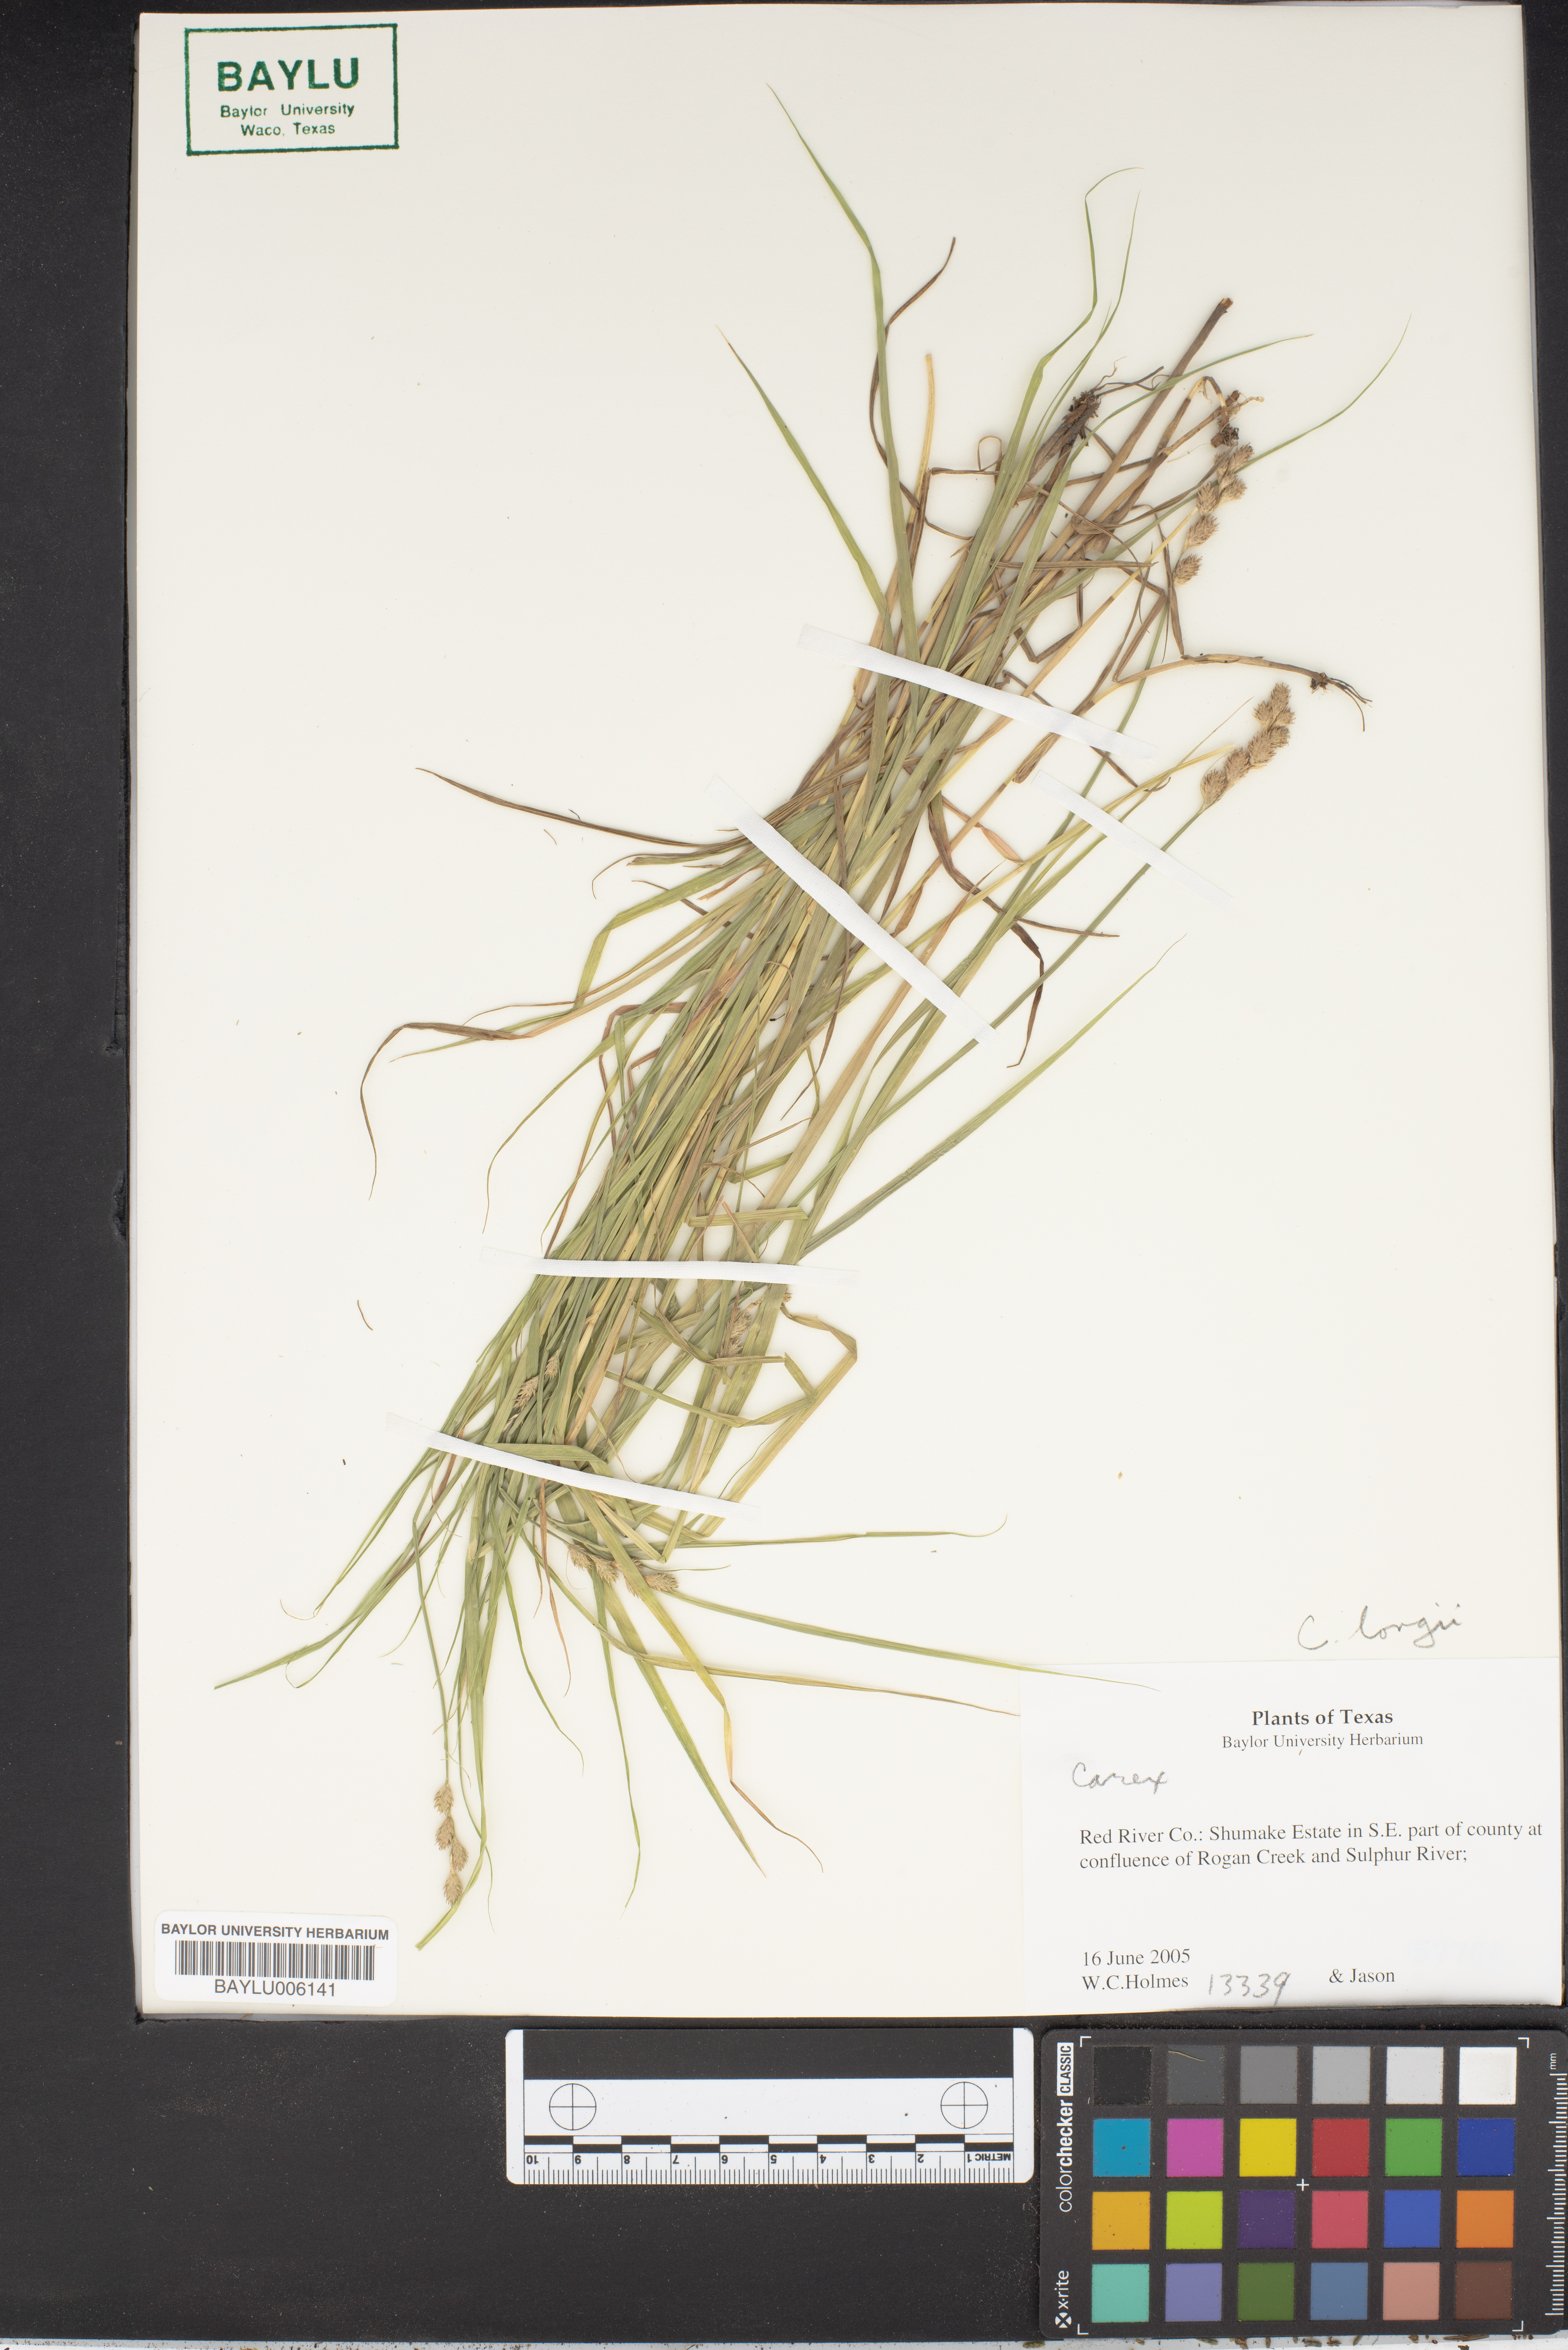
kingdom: Plantae
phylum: Tracheophyta
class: Liliopsida
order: Poales
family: Cyperaceae
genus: Carex
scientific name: Carex
